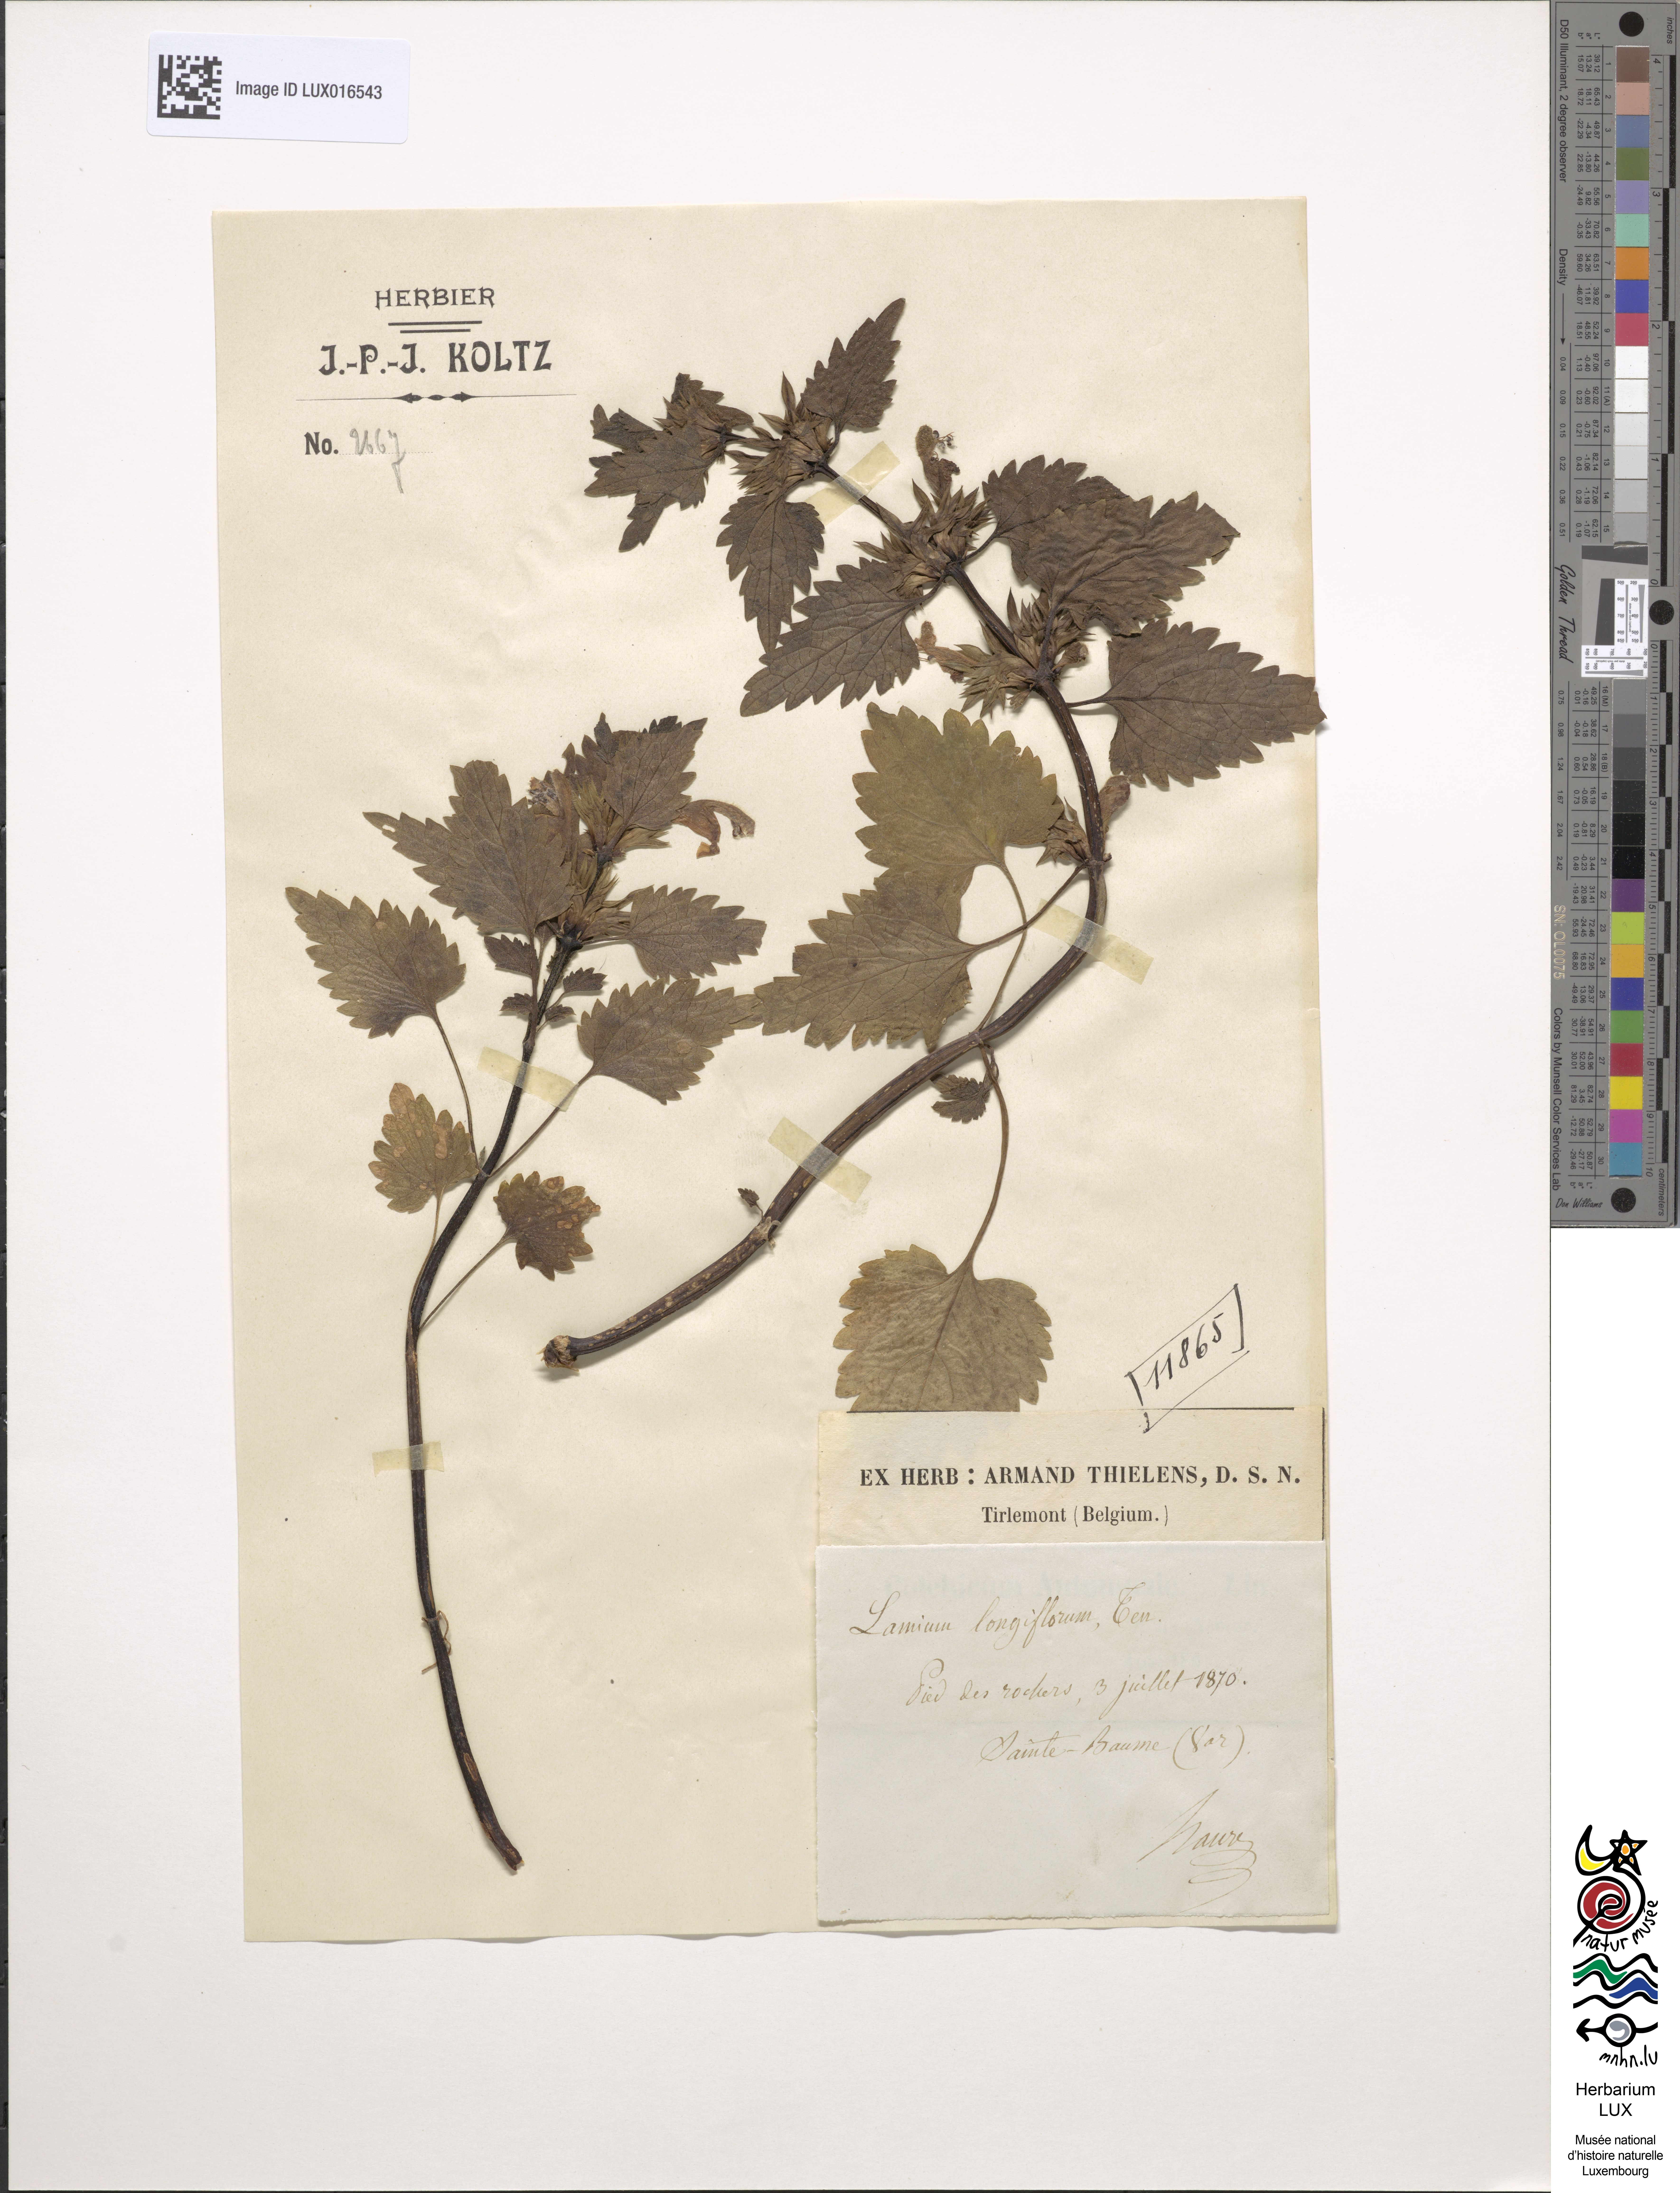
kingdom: Plantae
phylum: Tracheophyta
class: Magnoliopsida
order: Lamiales
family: Lamiaceae
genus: Lamium
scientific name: Lamium garganicum
